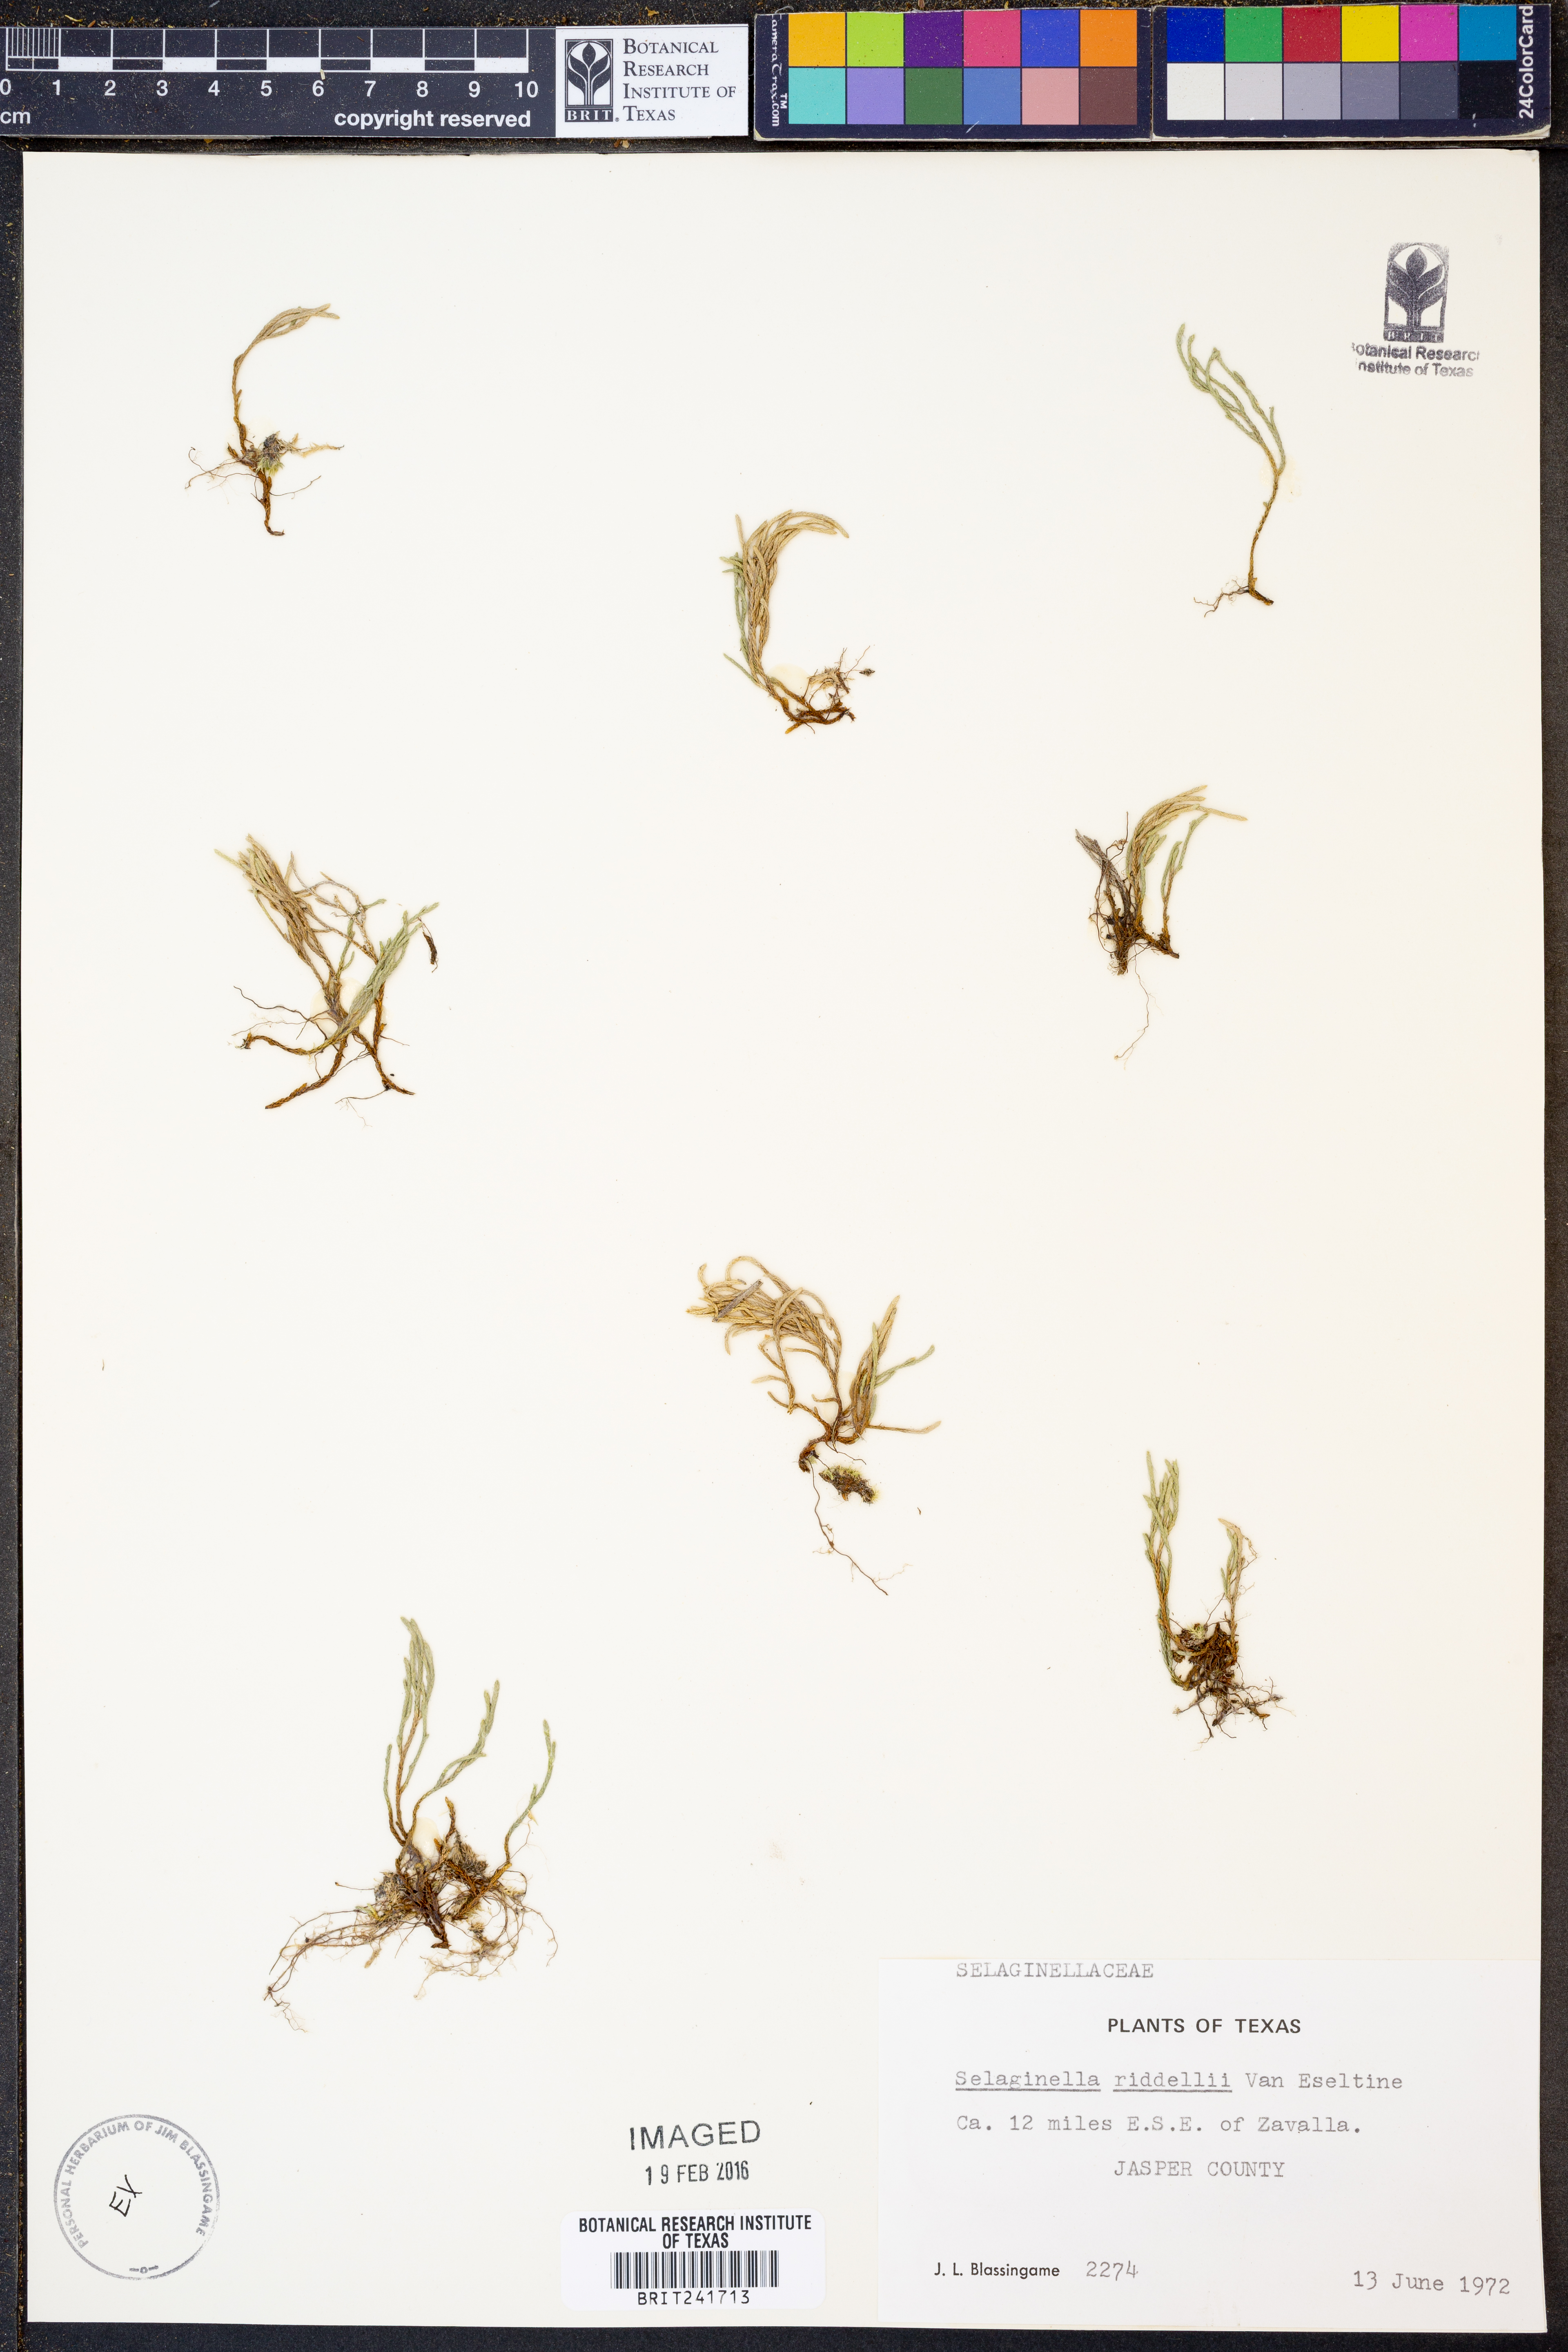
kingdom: Plantae
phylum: Tracheophyta
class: Lycopodiopsida
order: Selaginellales
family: Selaginellaceae
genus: Selaginella
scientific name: Selaginella corallina
